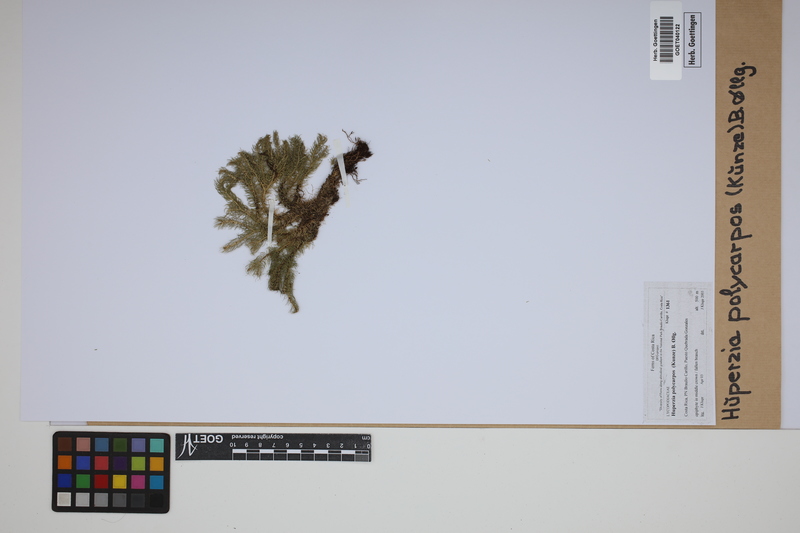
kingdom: Plantae
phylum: Tracheophyta
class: Lycopodiopsida
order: Lycopodiales
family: Lycopodiaceae
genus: Phlegmariurus
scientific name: Phlegmariurus
